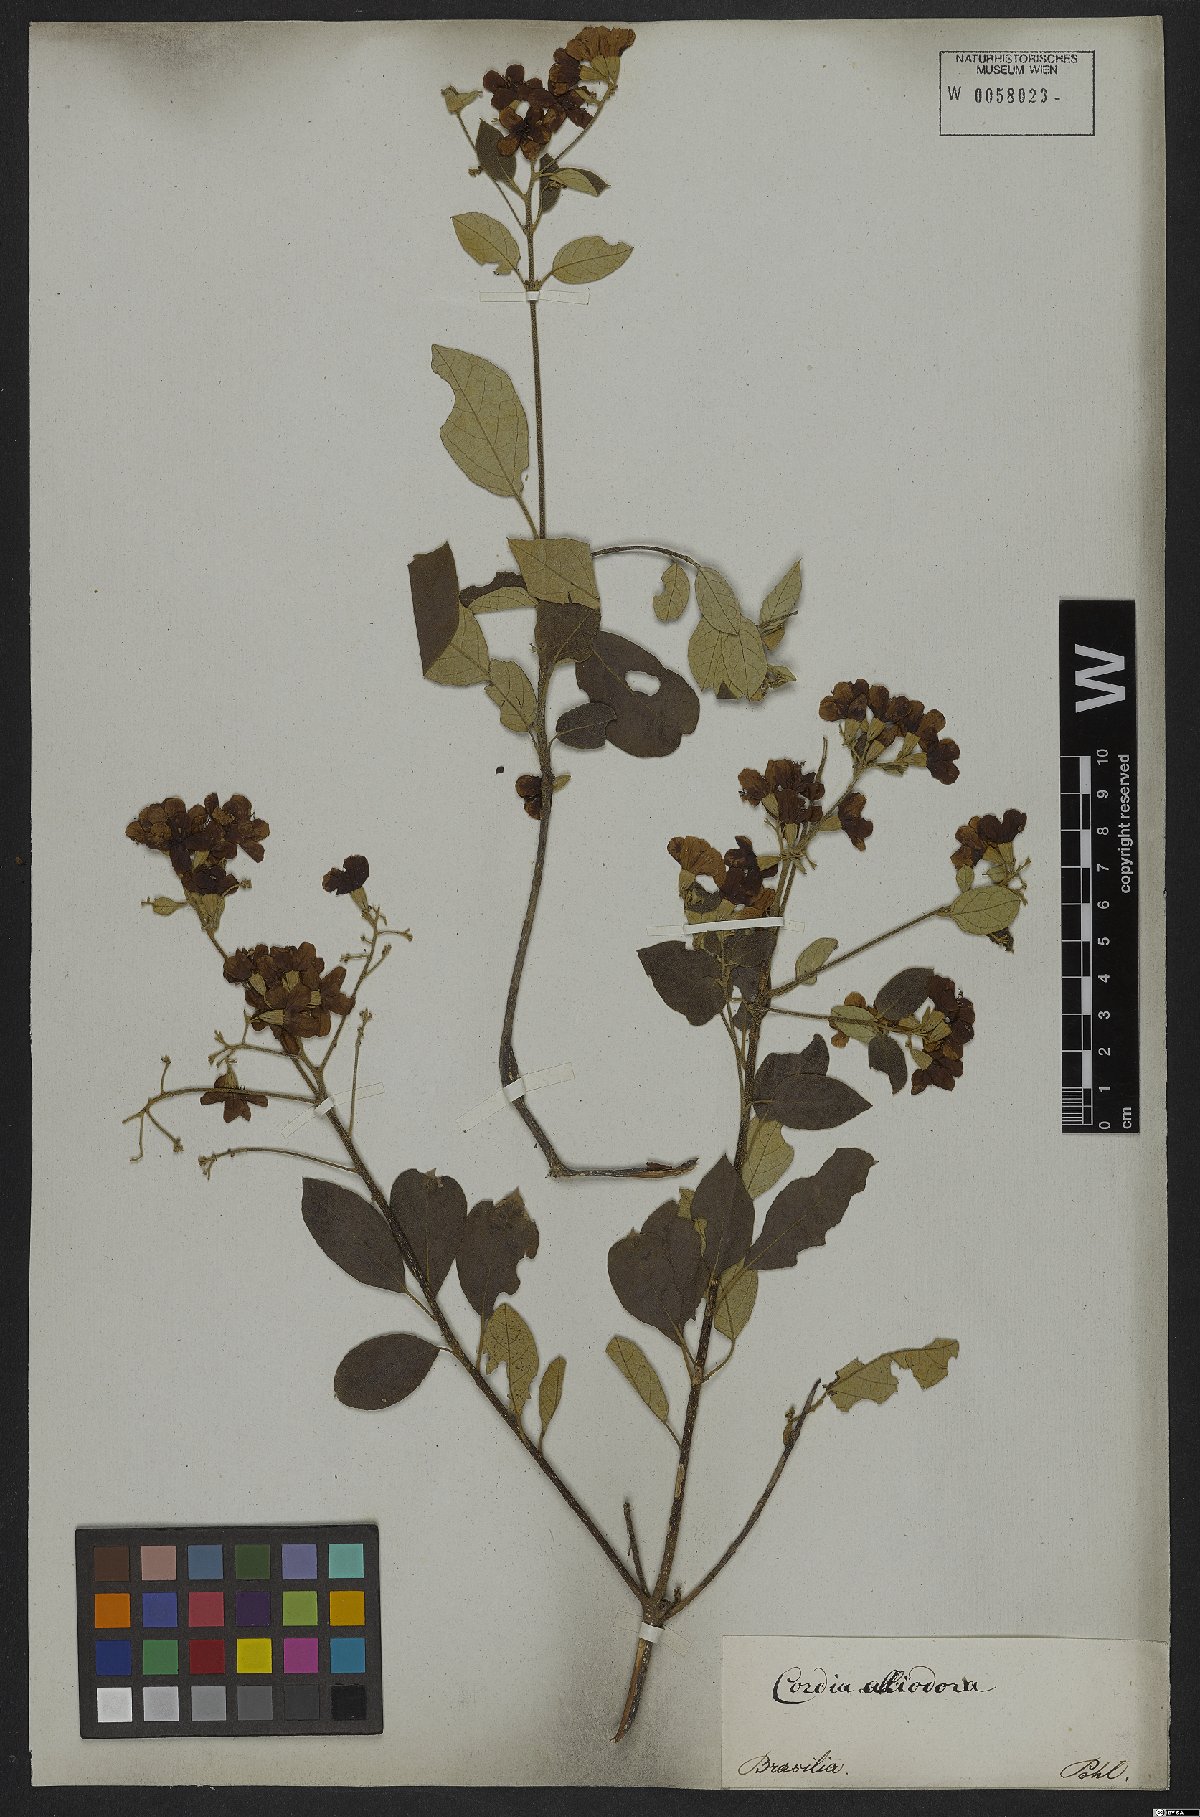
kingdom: Plantae
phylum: Tracheophyta
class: Magnoliopsida
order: Boraginales
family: Cordiaceae
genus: Cordia
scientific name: Cordia alliodora
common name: Spanish elm
